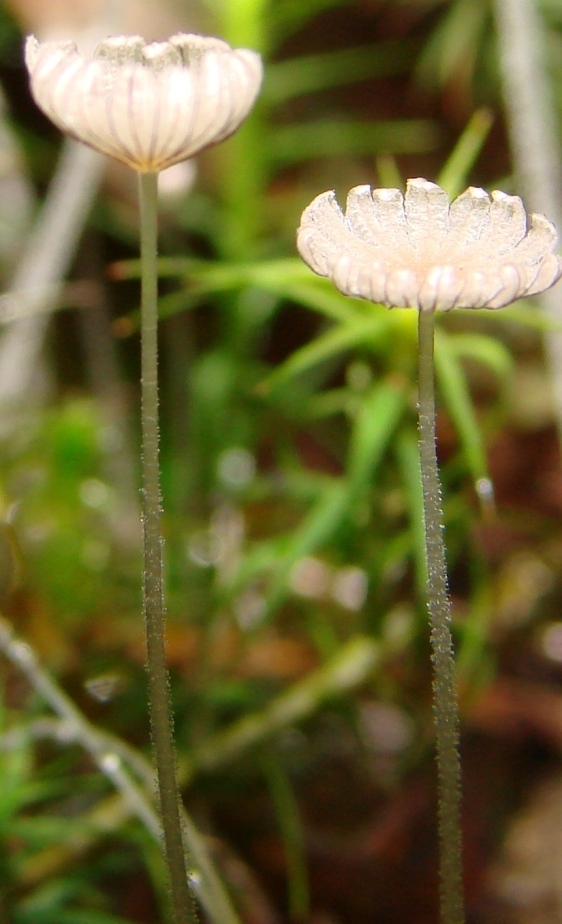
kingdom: Fungi
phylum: Basidiomycota
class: Agaricomycetes
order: Agaricales
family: Psathyrellaceae
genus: Coprinellus
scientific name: Coprinellus pusillulus
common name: lillebitte blækhat
